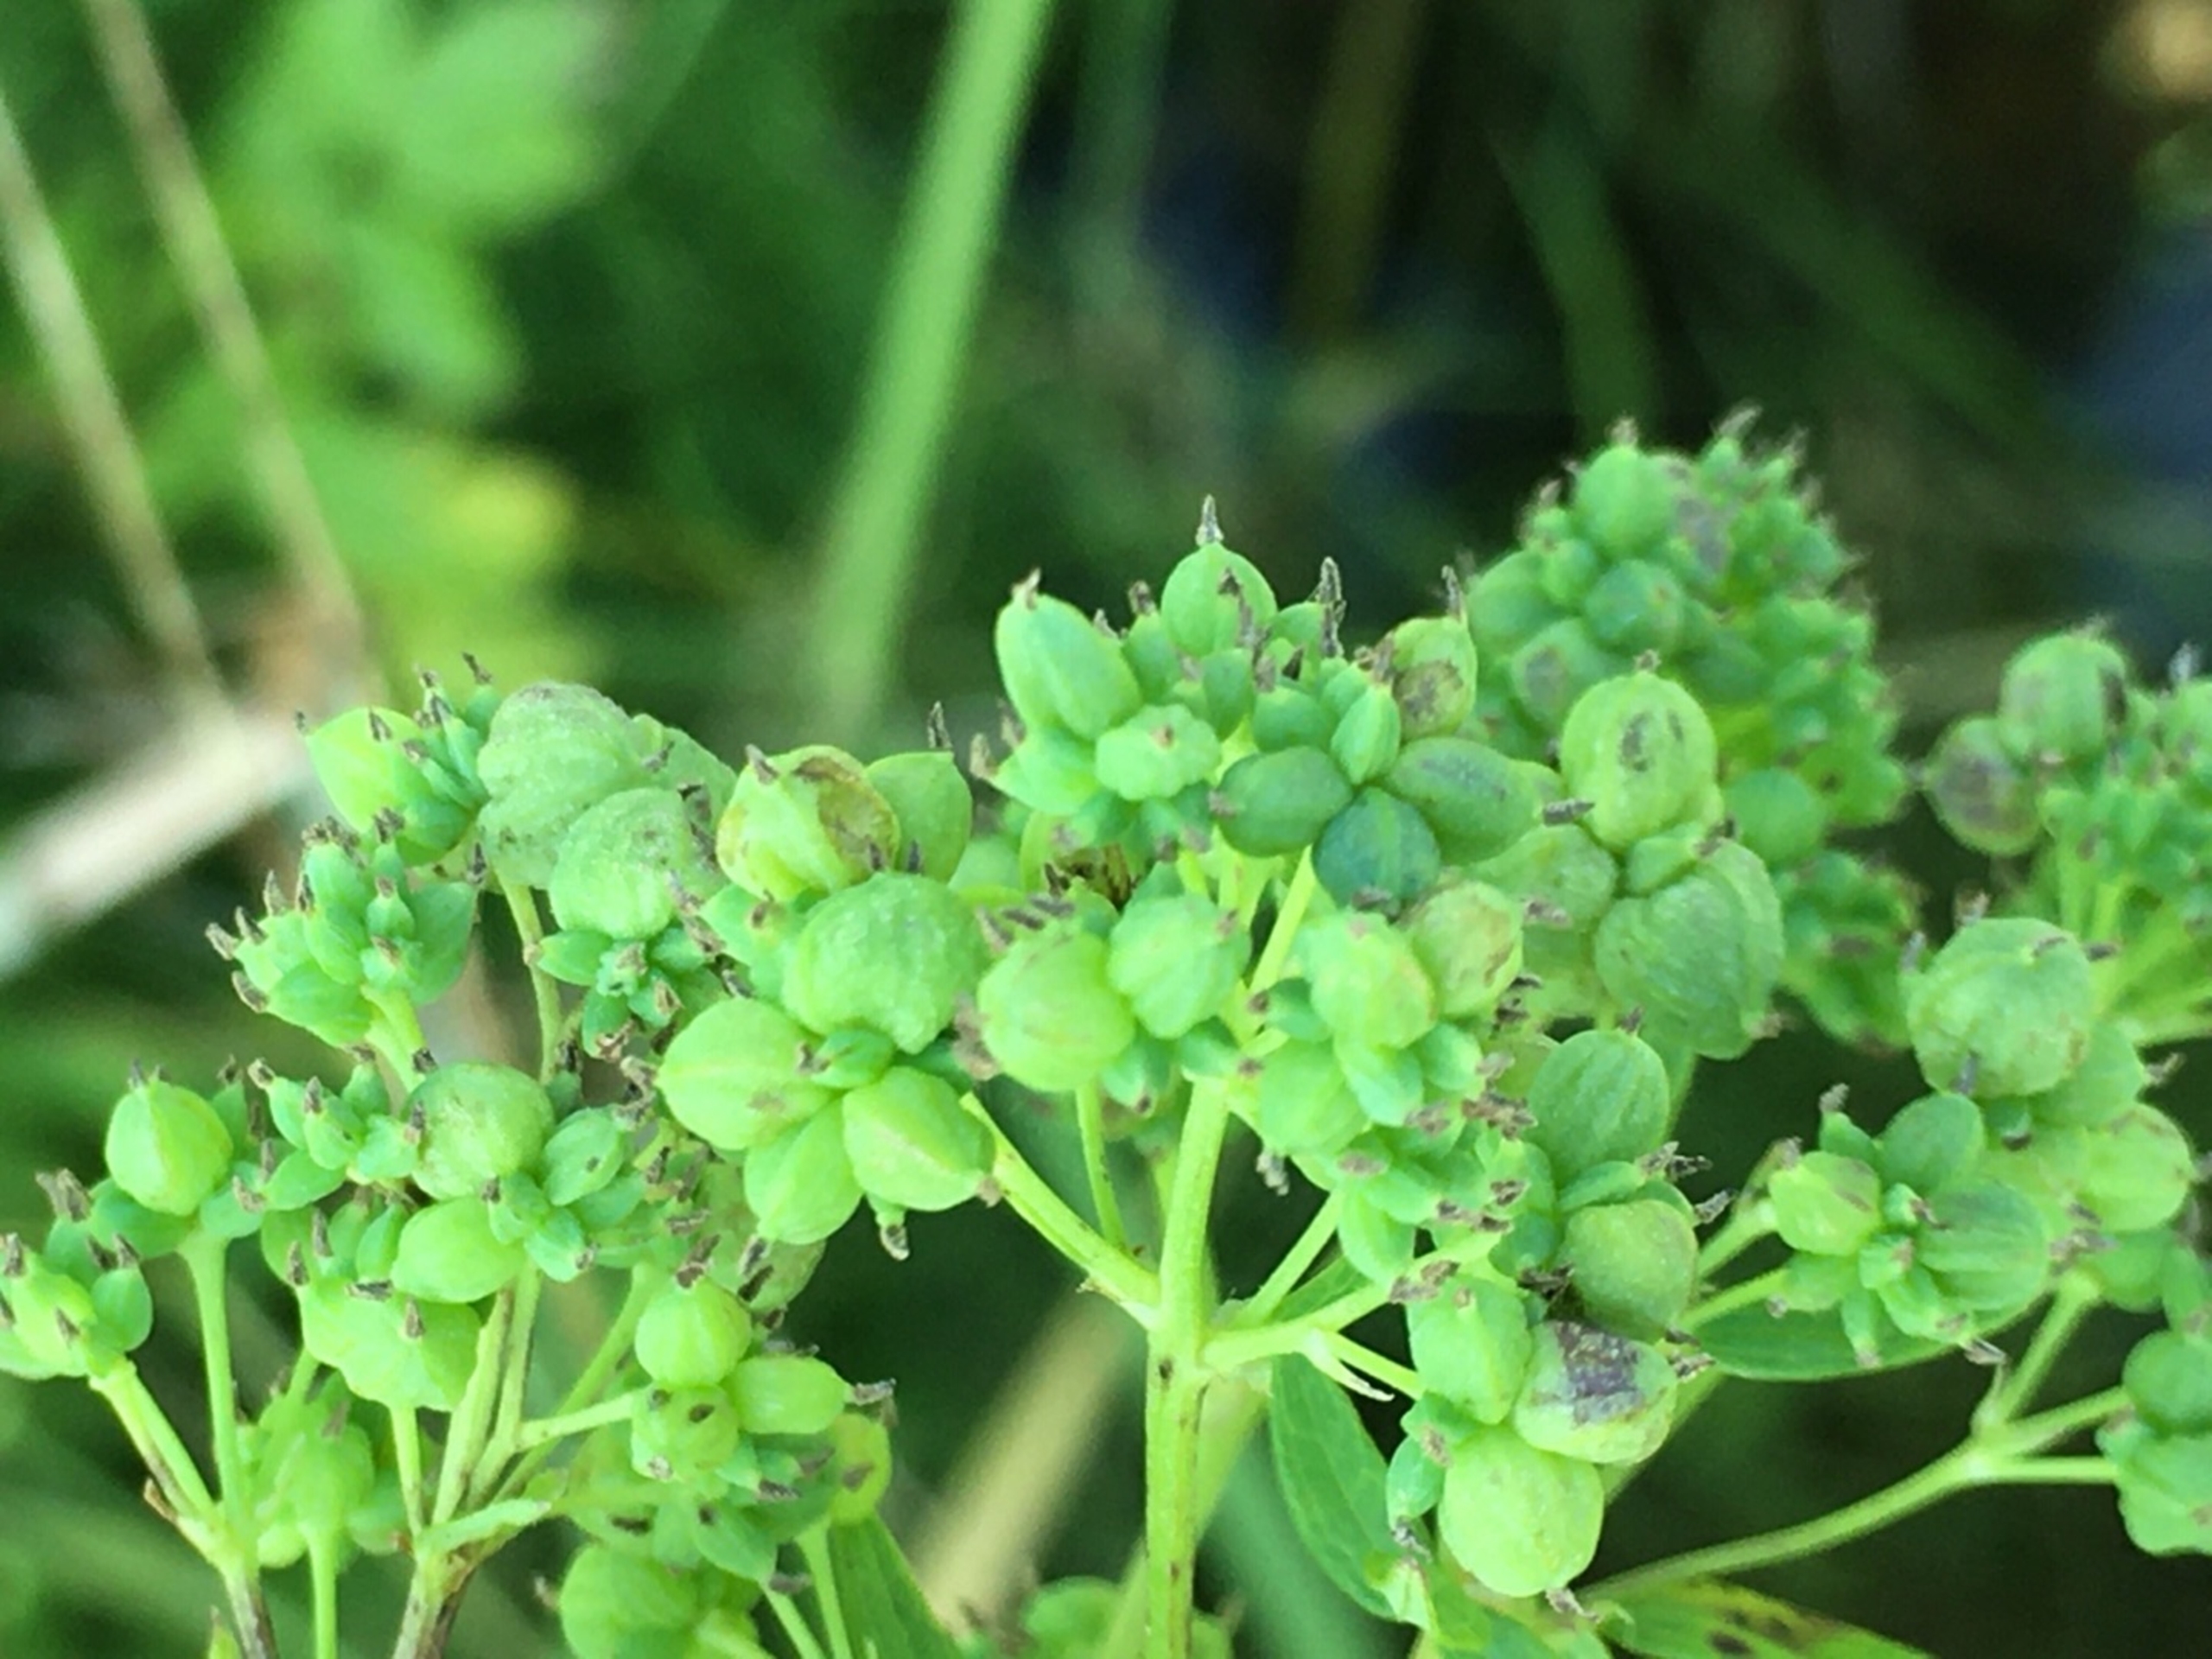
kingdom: Animalia
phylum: Arthropoda
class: Insecta
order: Diptera
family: Cecidomyiidae
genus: Ametrodiplosis
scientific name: Ametrodiplosis thalictricola
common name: Frøstjernegalmyg
